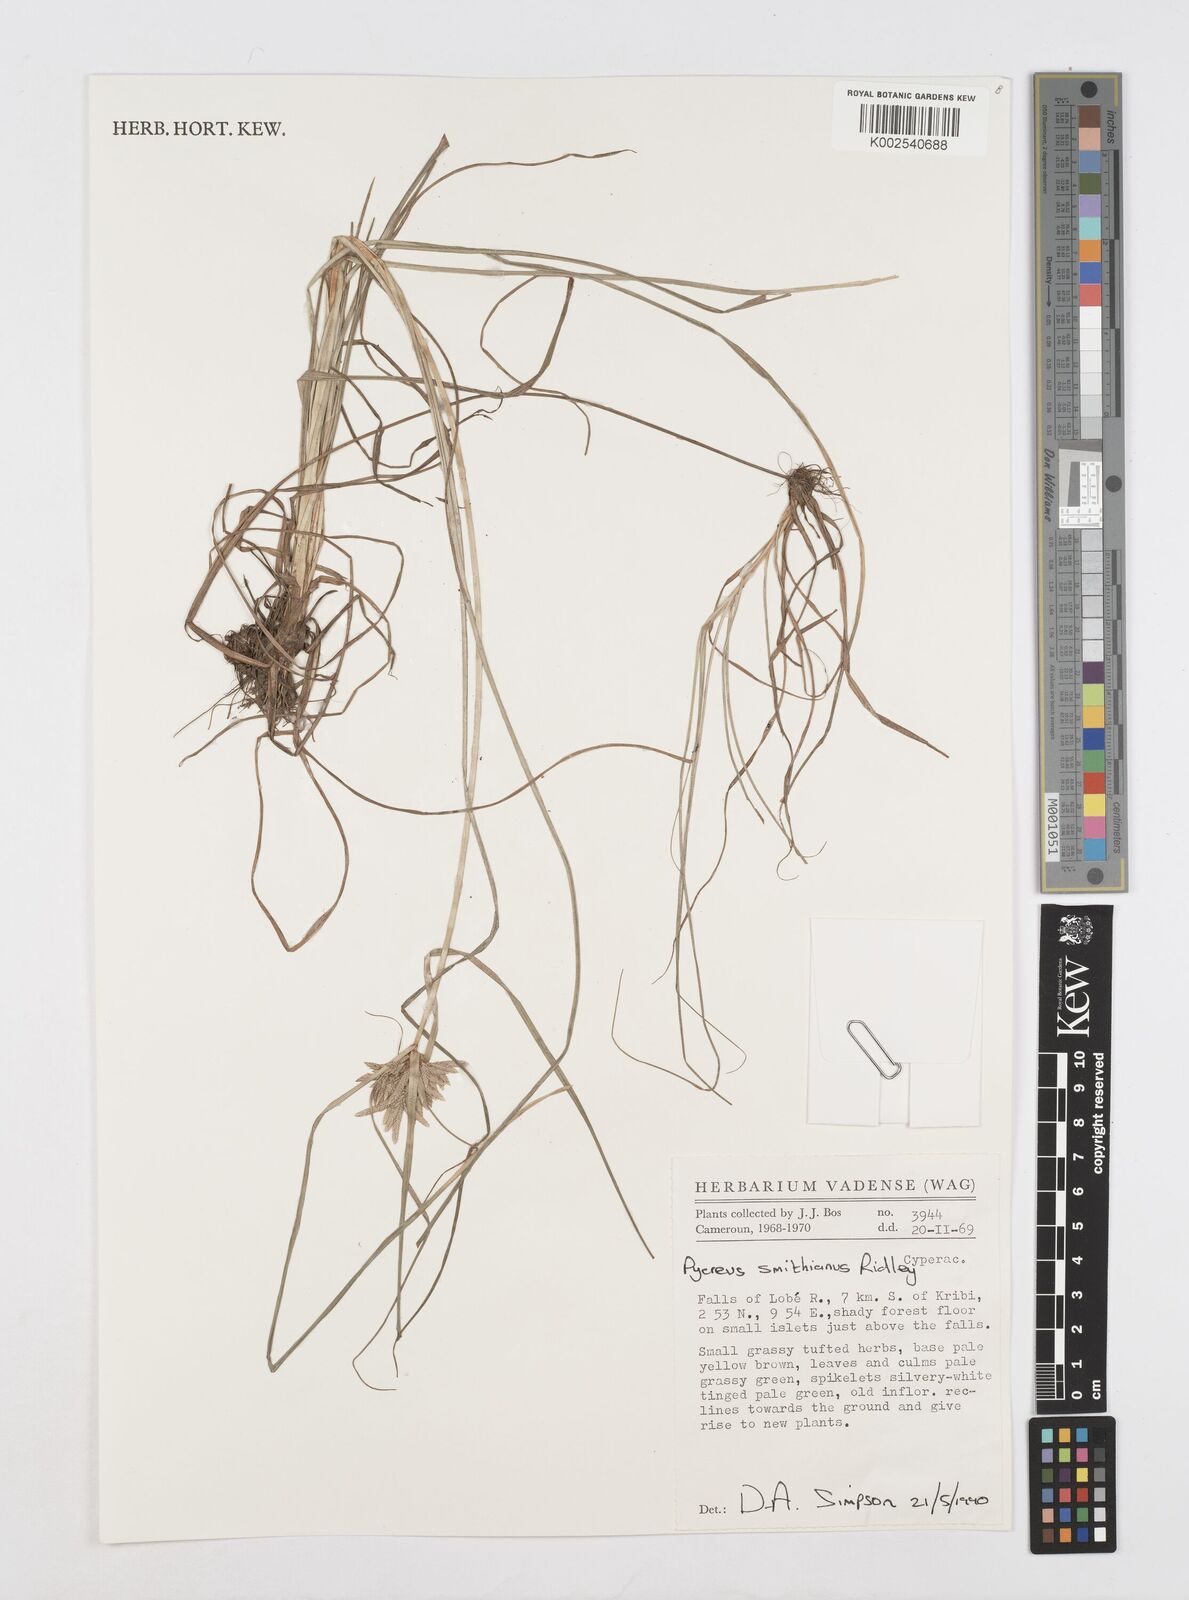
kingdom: Plantae
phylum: Tracheophyta
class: Liliopsida
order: Poales
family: Cyperaceae
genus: Cyperus
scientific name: Cyperus smithianus
